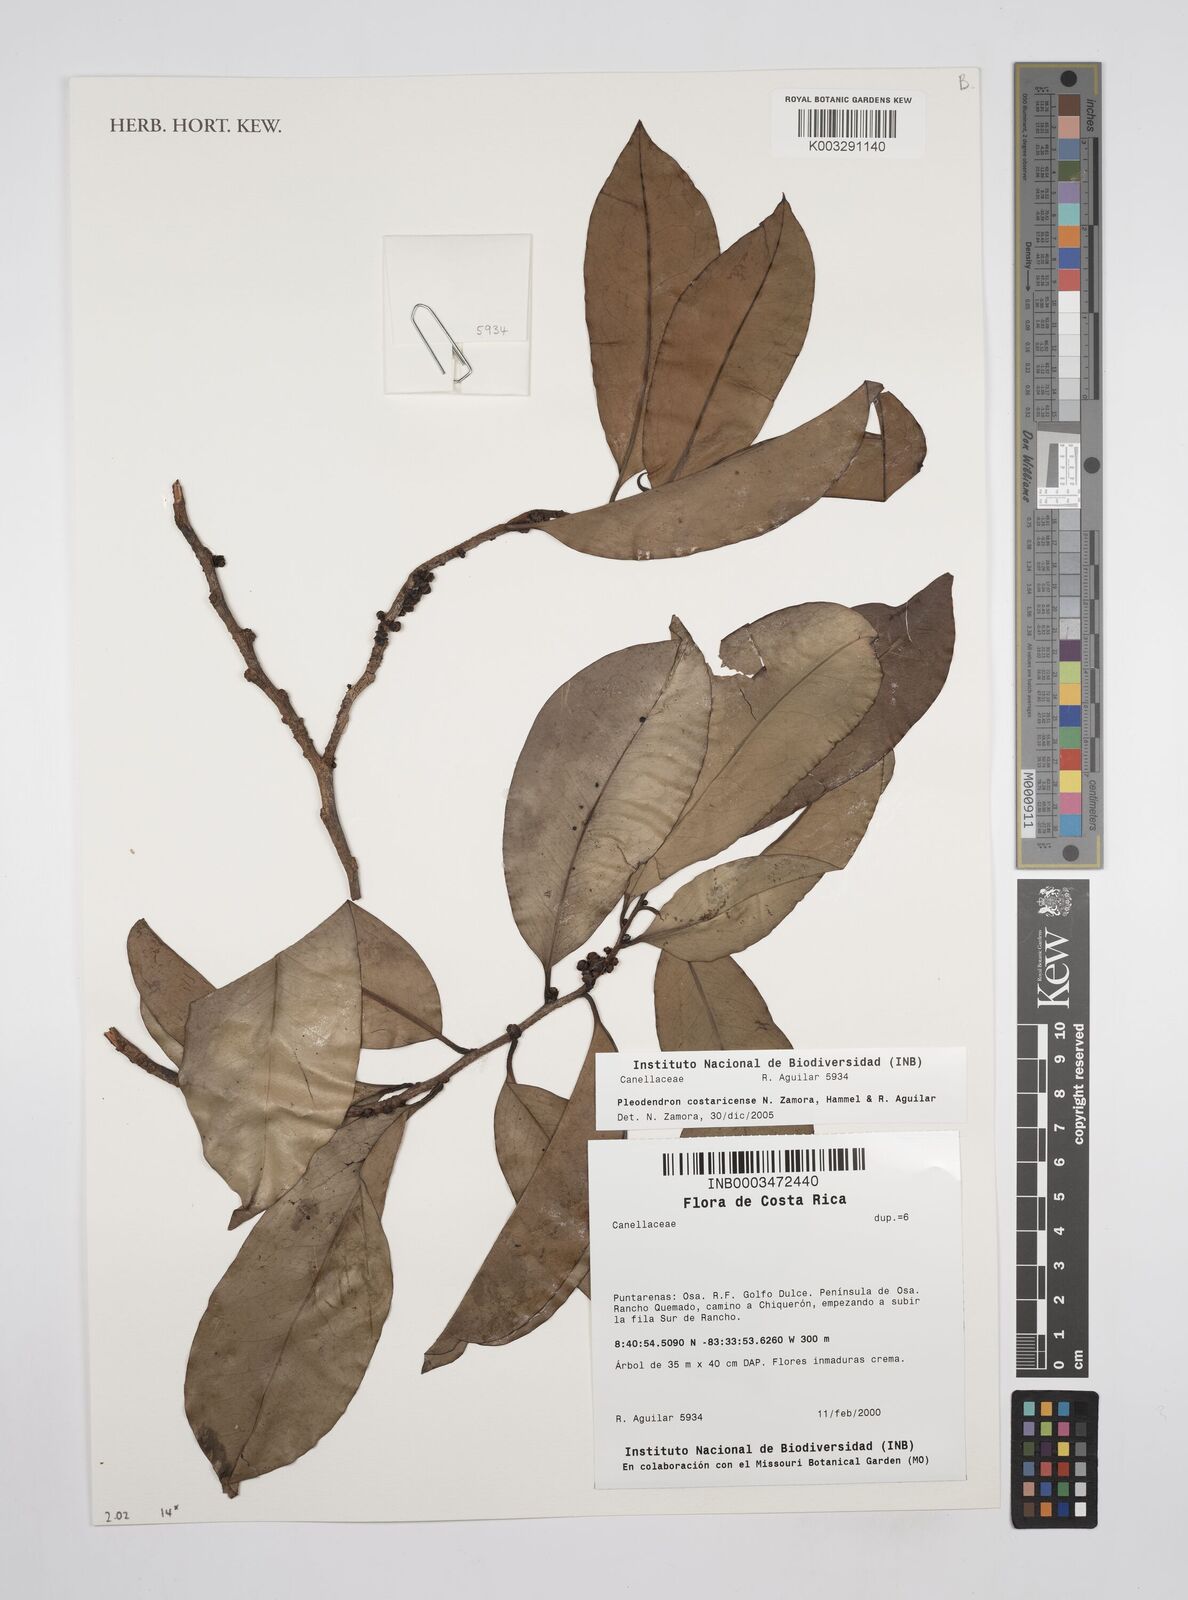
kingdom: Plantae
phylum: Tracheophyta
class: Magnoliopsida
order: Canellales
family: Canellaceae
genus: Pleodendron
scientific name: Pleodendron costaricense
